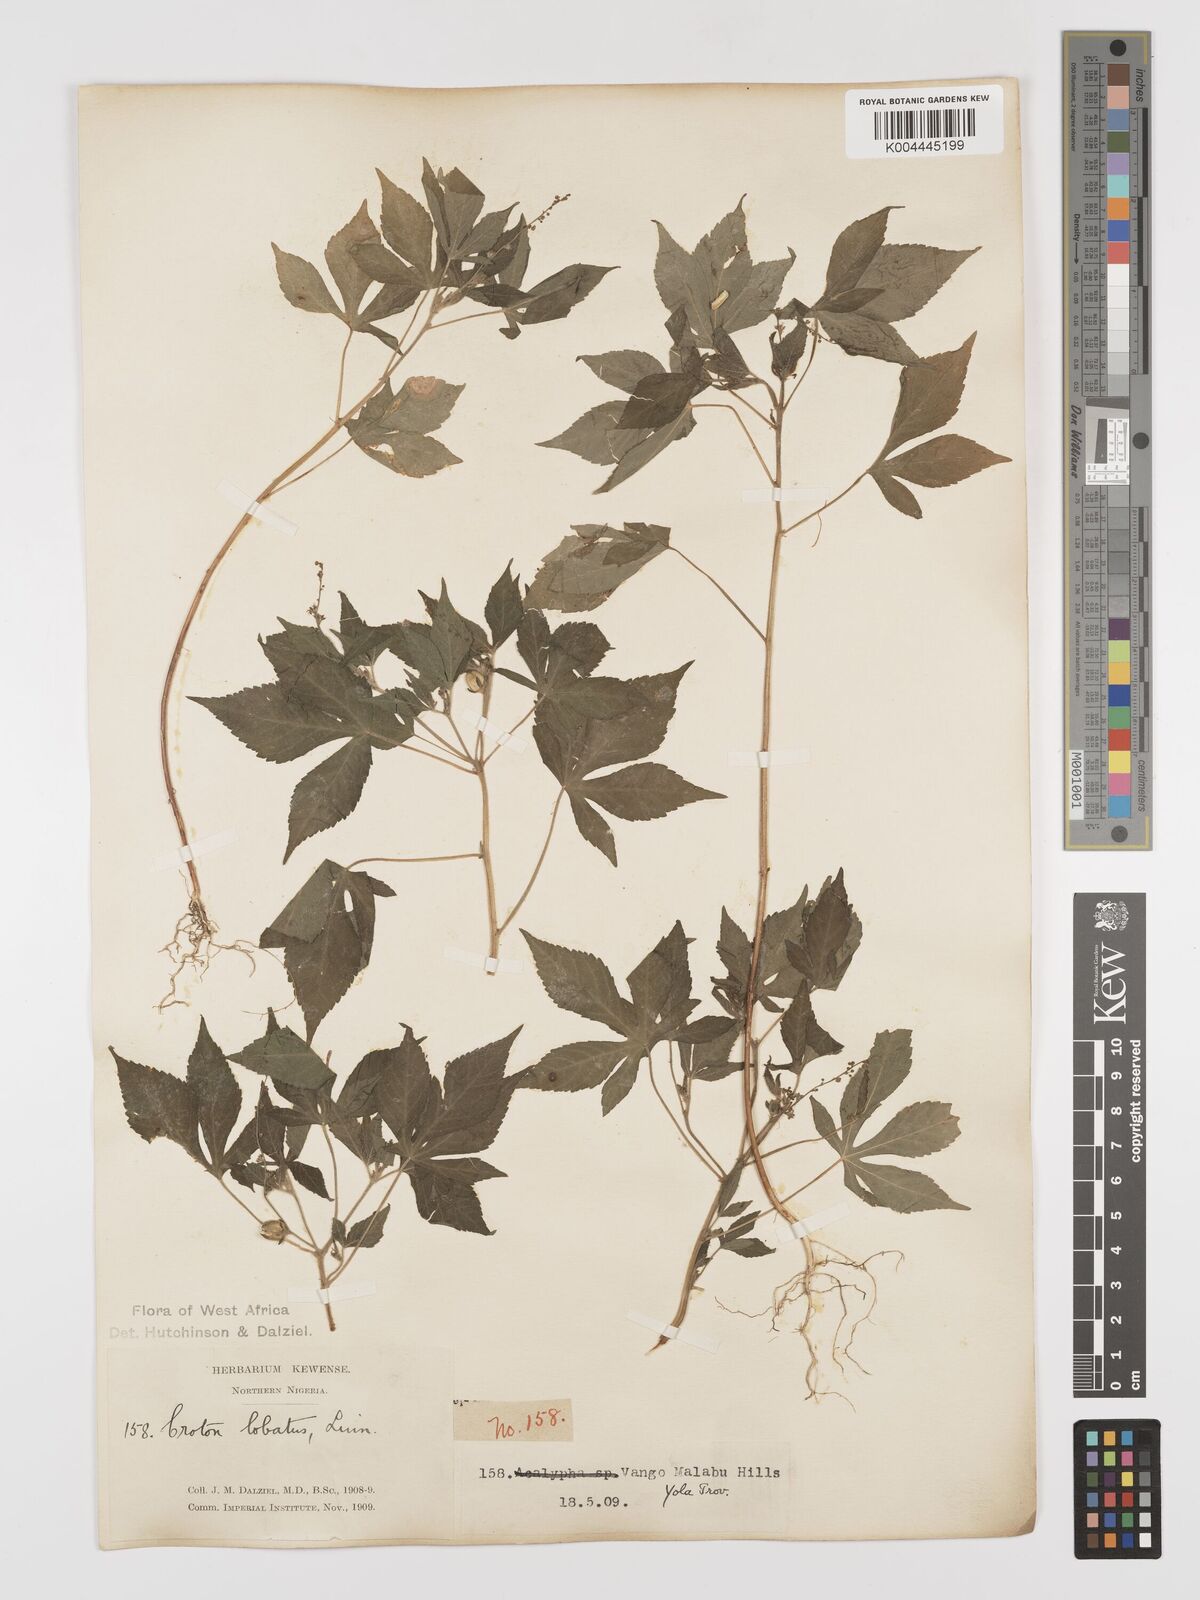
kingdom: Plantae
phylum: Tracheophyta
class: Magnoliopsida
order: Malpighiales
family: Euphorbiaceae
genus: Astraea
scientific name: Astraea lobata
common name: Lobed croton
